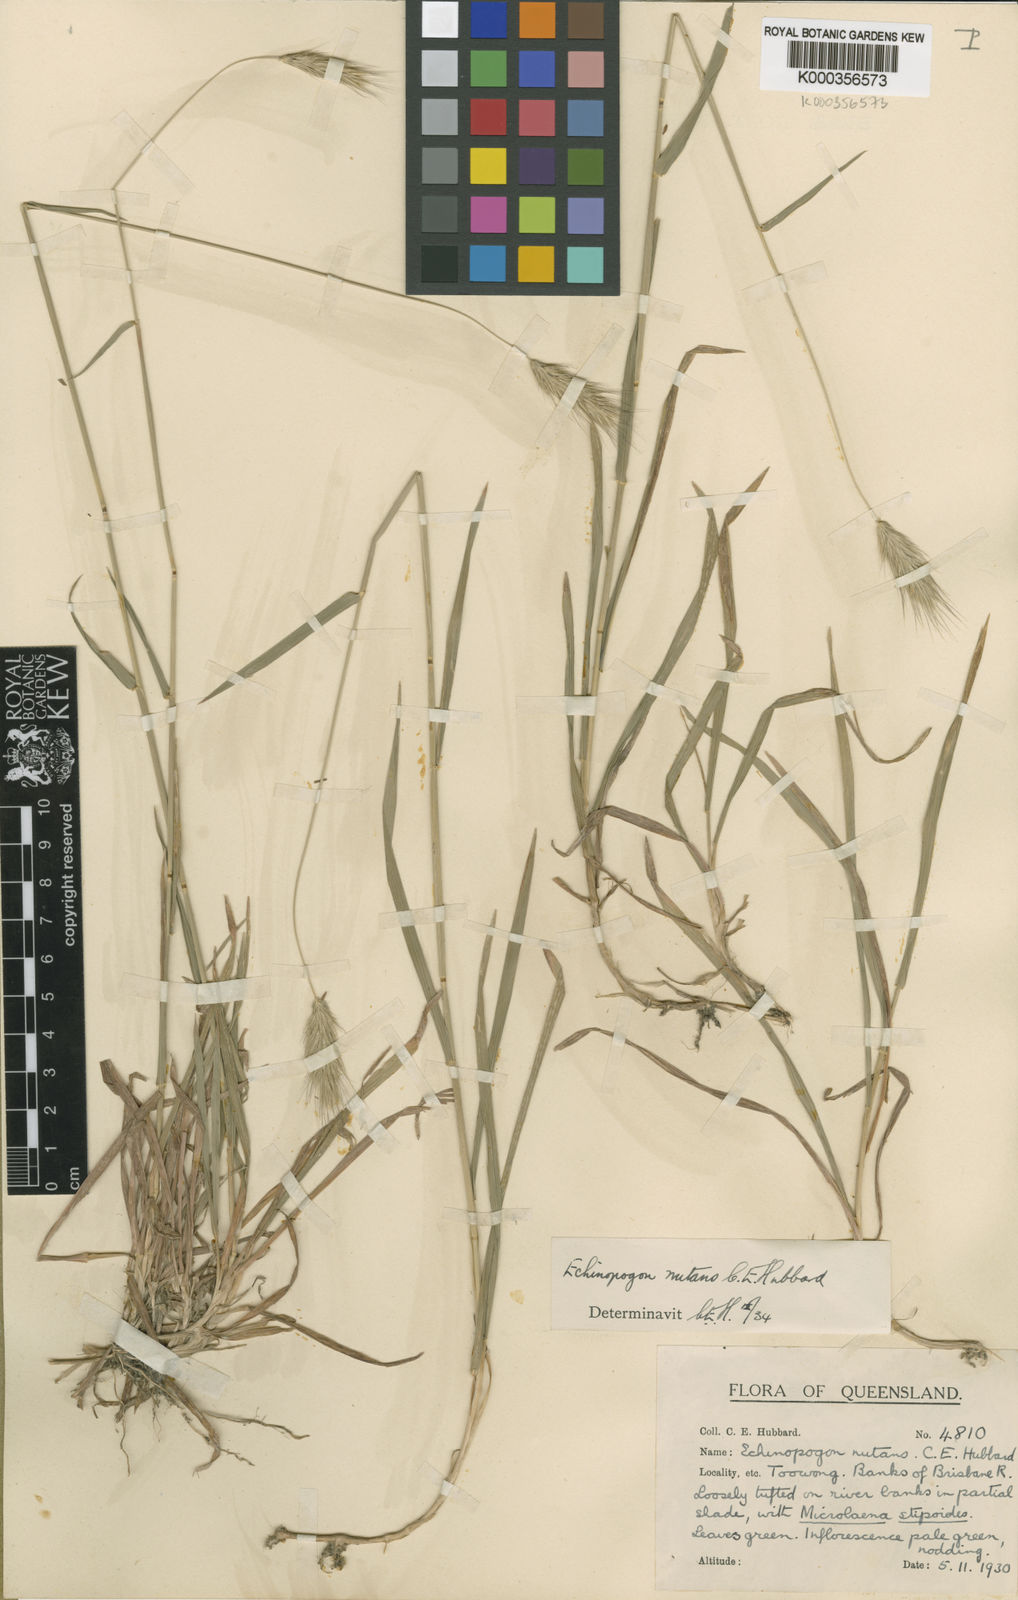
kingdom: Plantae
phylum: Tracheophyta
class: Liliopsida
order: Poales
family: Poaceae
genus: Echinopogon
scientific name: Echinopogon nutans
